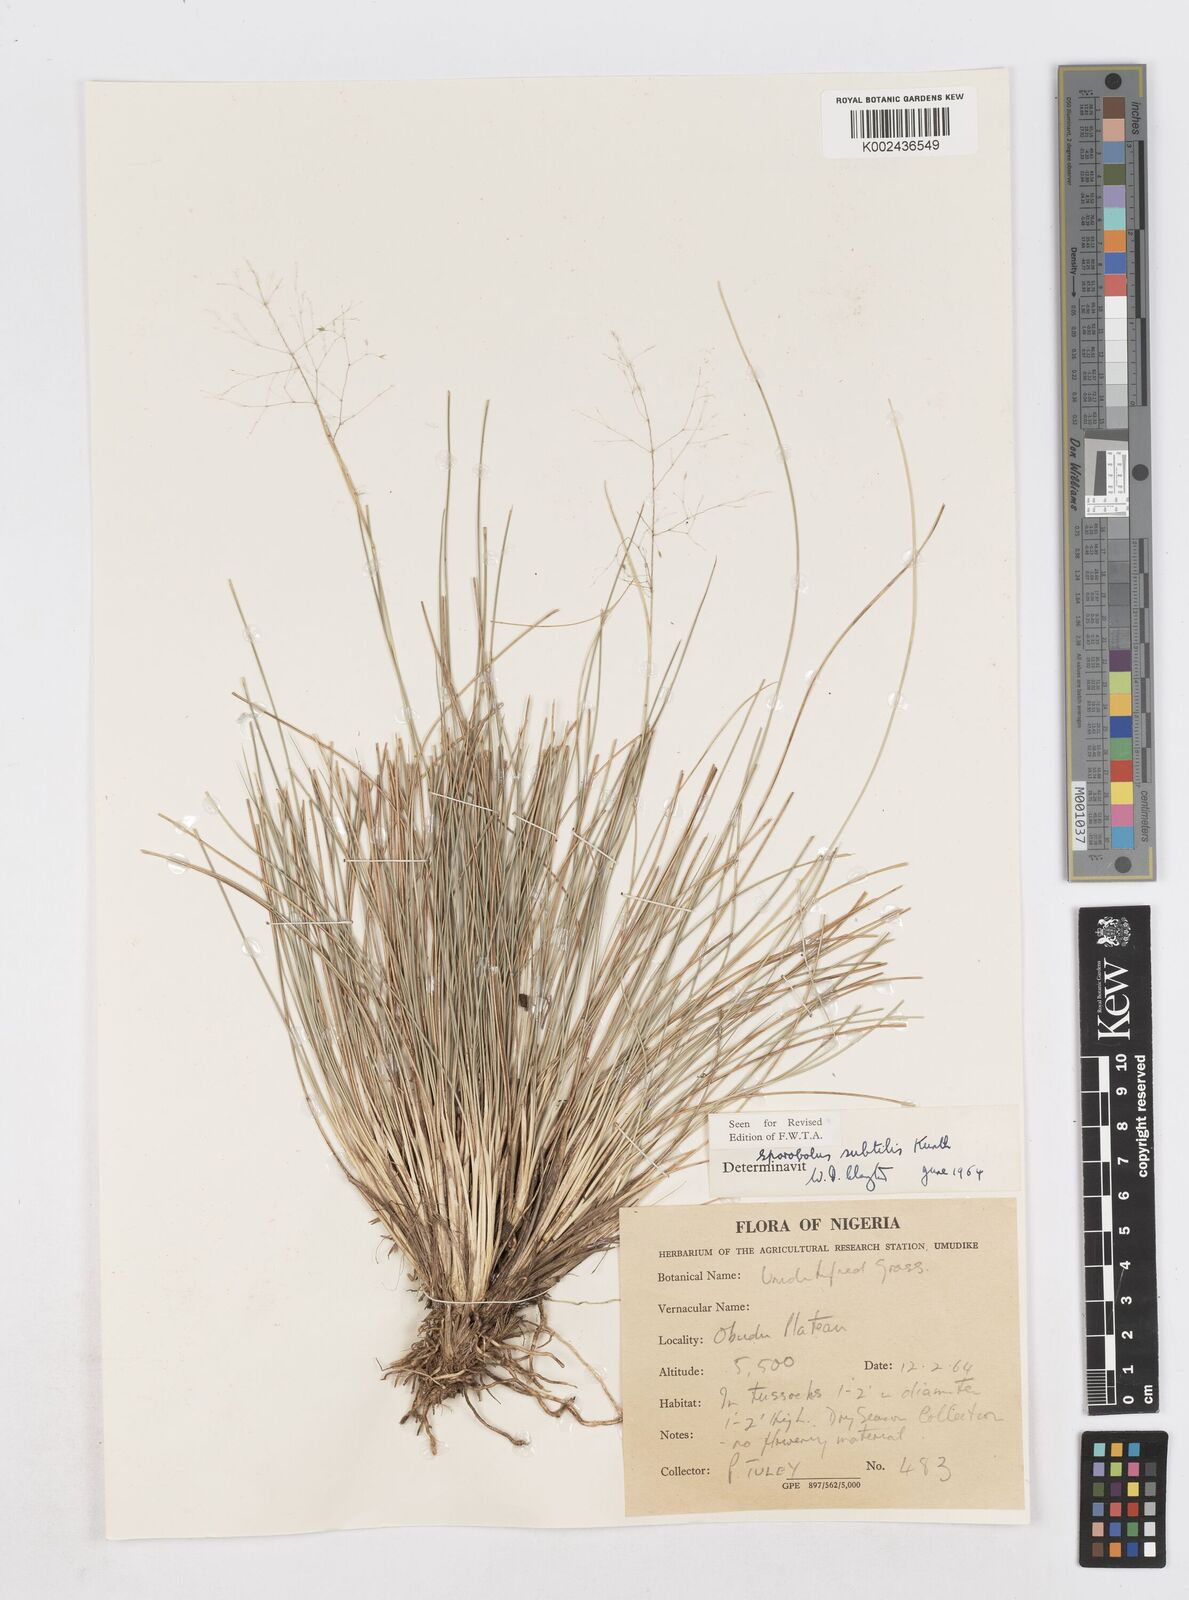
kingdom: Plantae
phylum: Tracheophyta
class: Liliopsida
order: Poales
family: Poaceae
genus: Sporobolus
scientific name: Sporobolus subtilis
